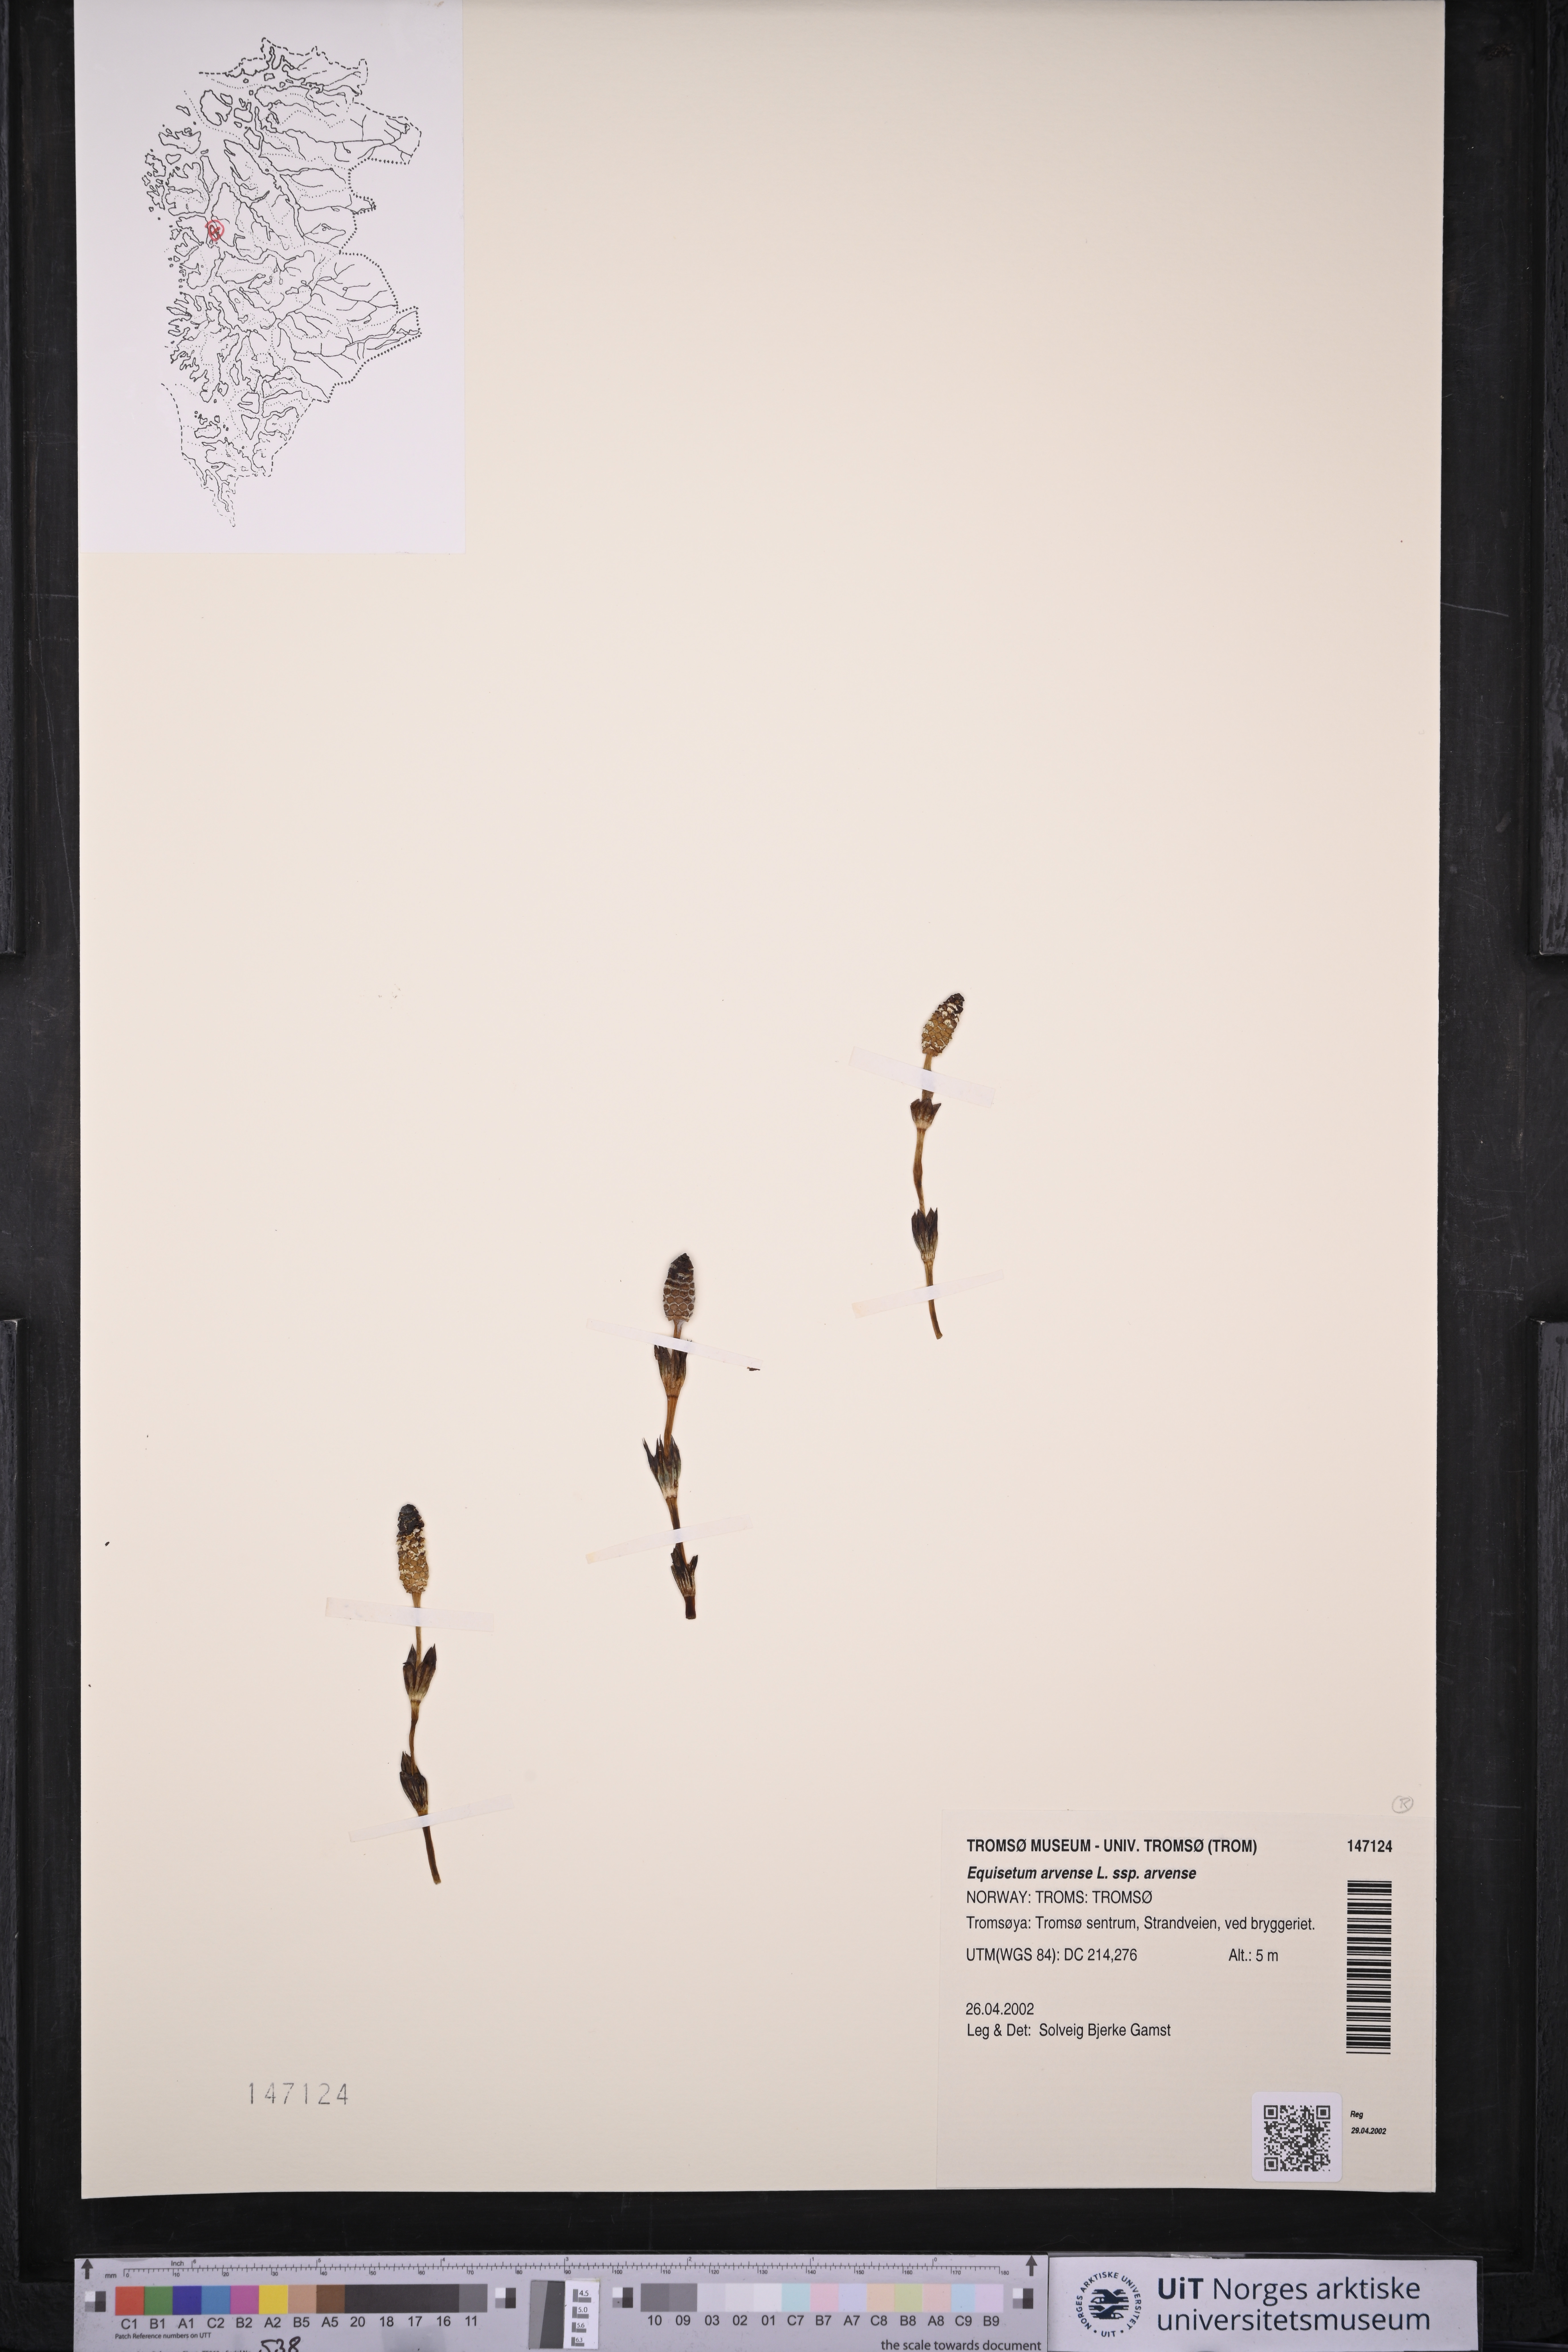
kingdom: Plantae
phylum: Tracheophyta
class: Polypodiopsida
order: Equisetales
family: Equisetaceae
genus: Equisetum
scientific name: Equisetum arvense
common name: Field horsetail
